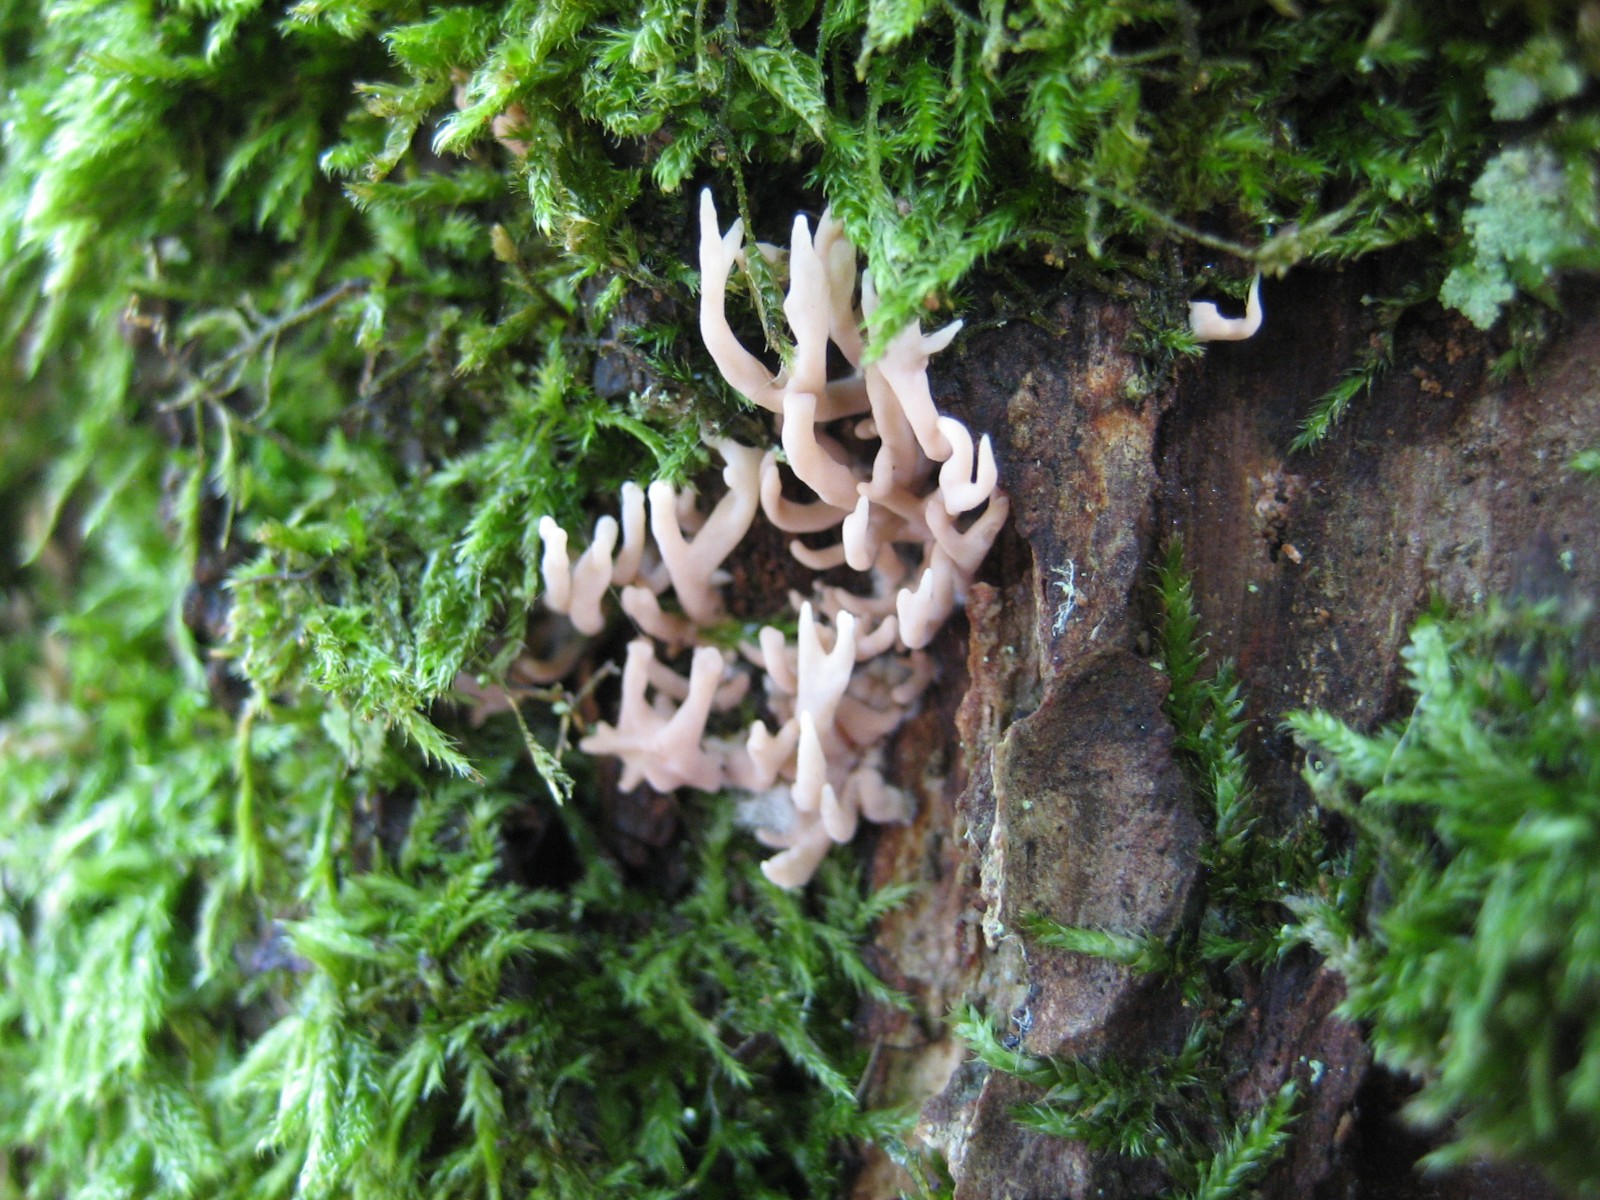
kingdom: Fungi
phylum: Basidiomycota
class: Agaricomycetes
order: Gomphales
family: Lentariaceae
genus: Lentaria
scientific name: Lentaria byssiseda
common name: kødfarvet grenkølle
